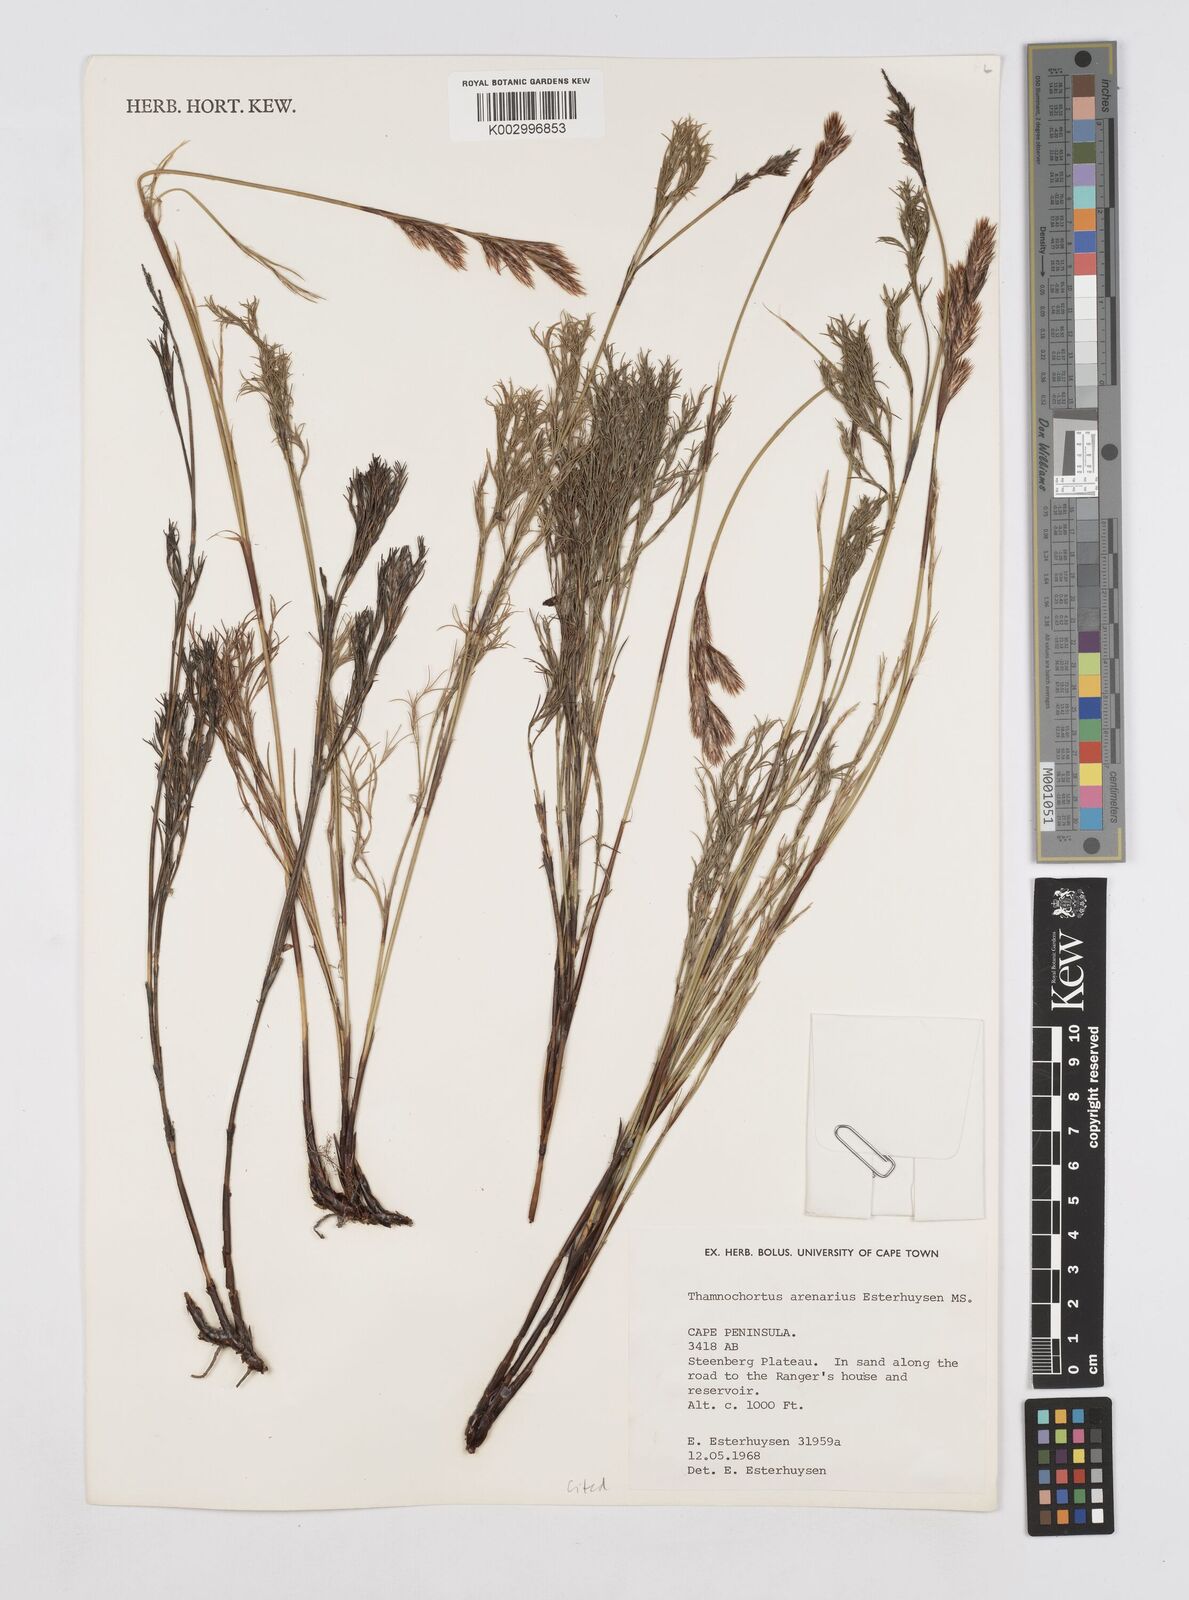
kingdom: Plantae
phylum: Tracheophyta
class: Liliopsida
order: Poales
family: Restionaceae
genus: Thamnochortus
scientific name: Thamnochortus arenarius
